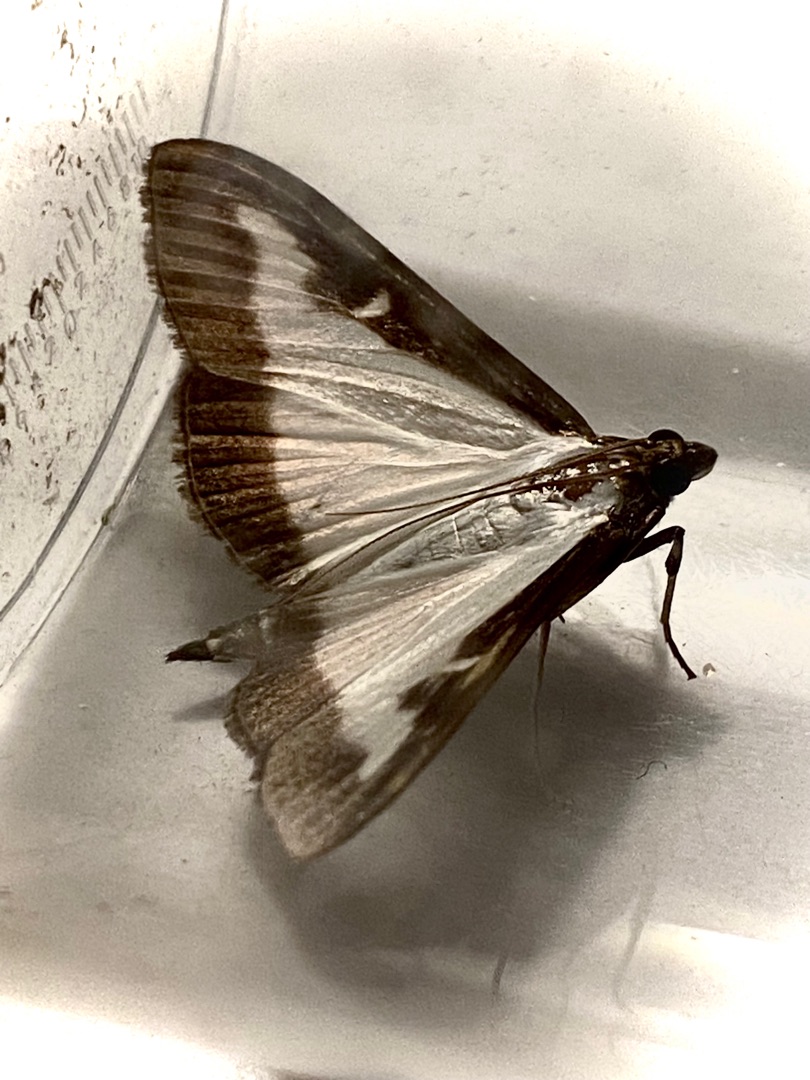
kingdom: Animalia
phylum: Arthropoda
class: Insecta
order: Lepidoptera
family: Crambidae
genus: Cydalima
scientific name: Cydalima perspectalis
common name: Buksbomhalvmøl
